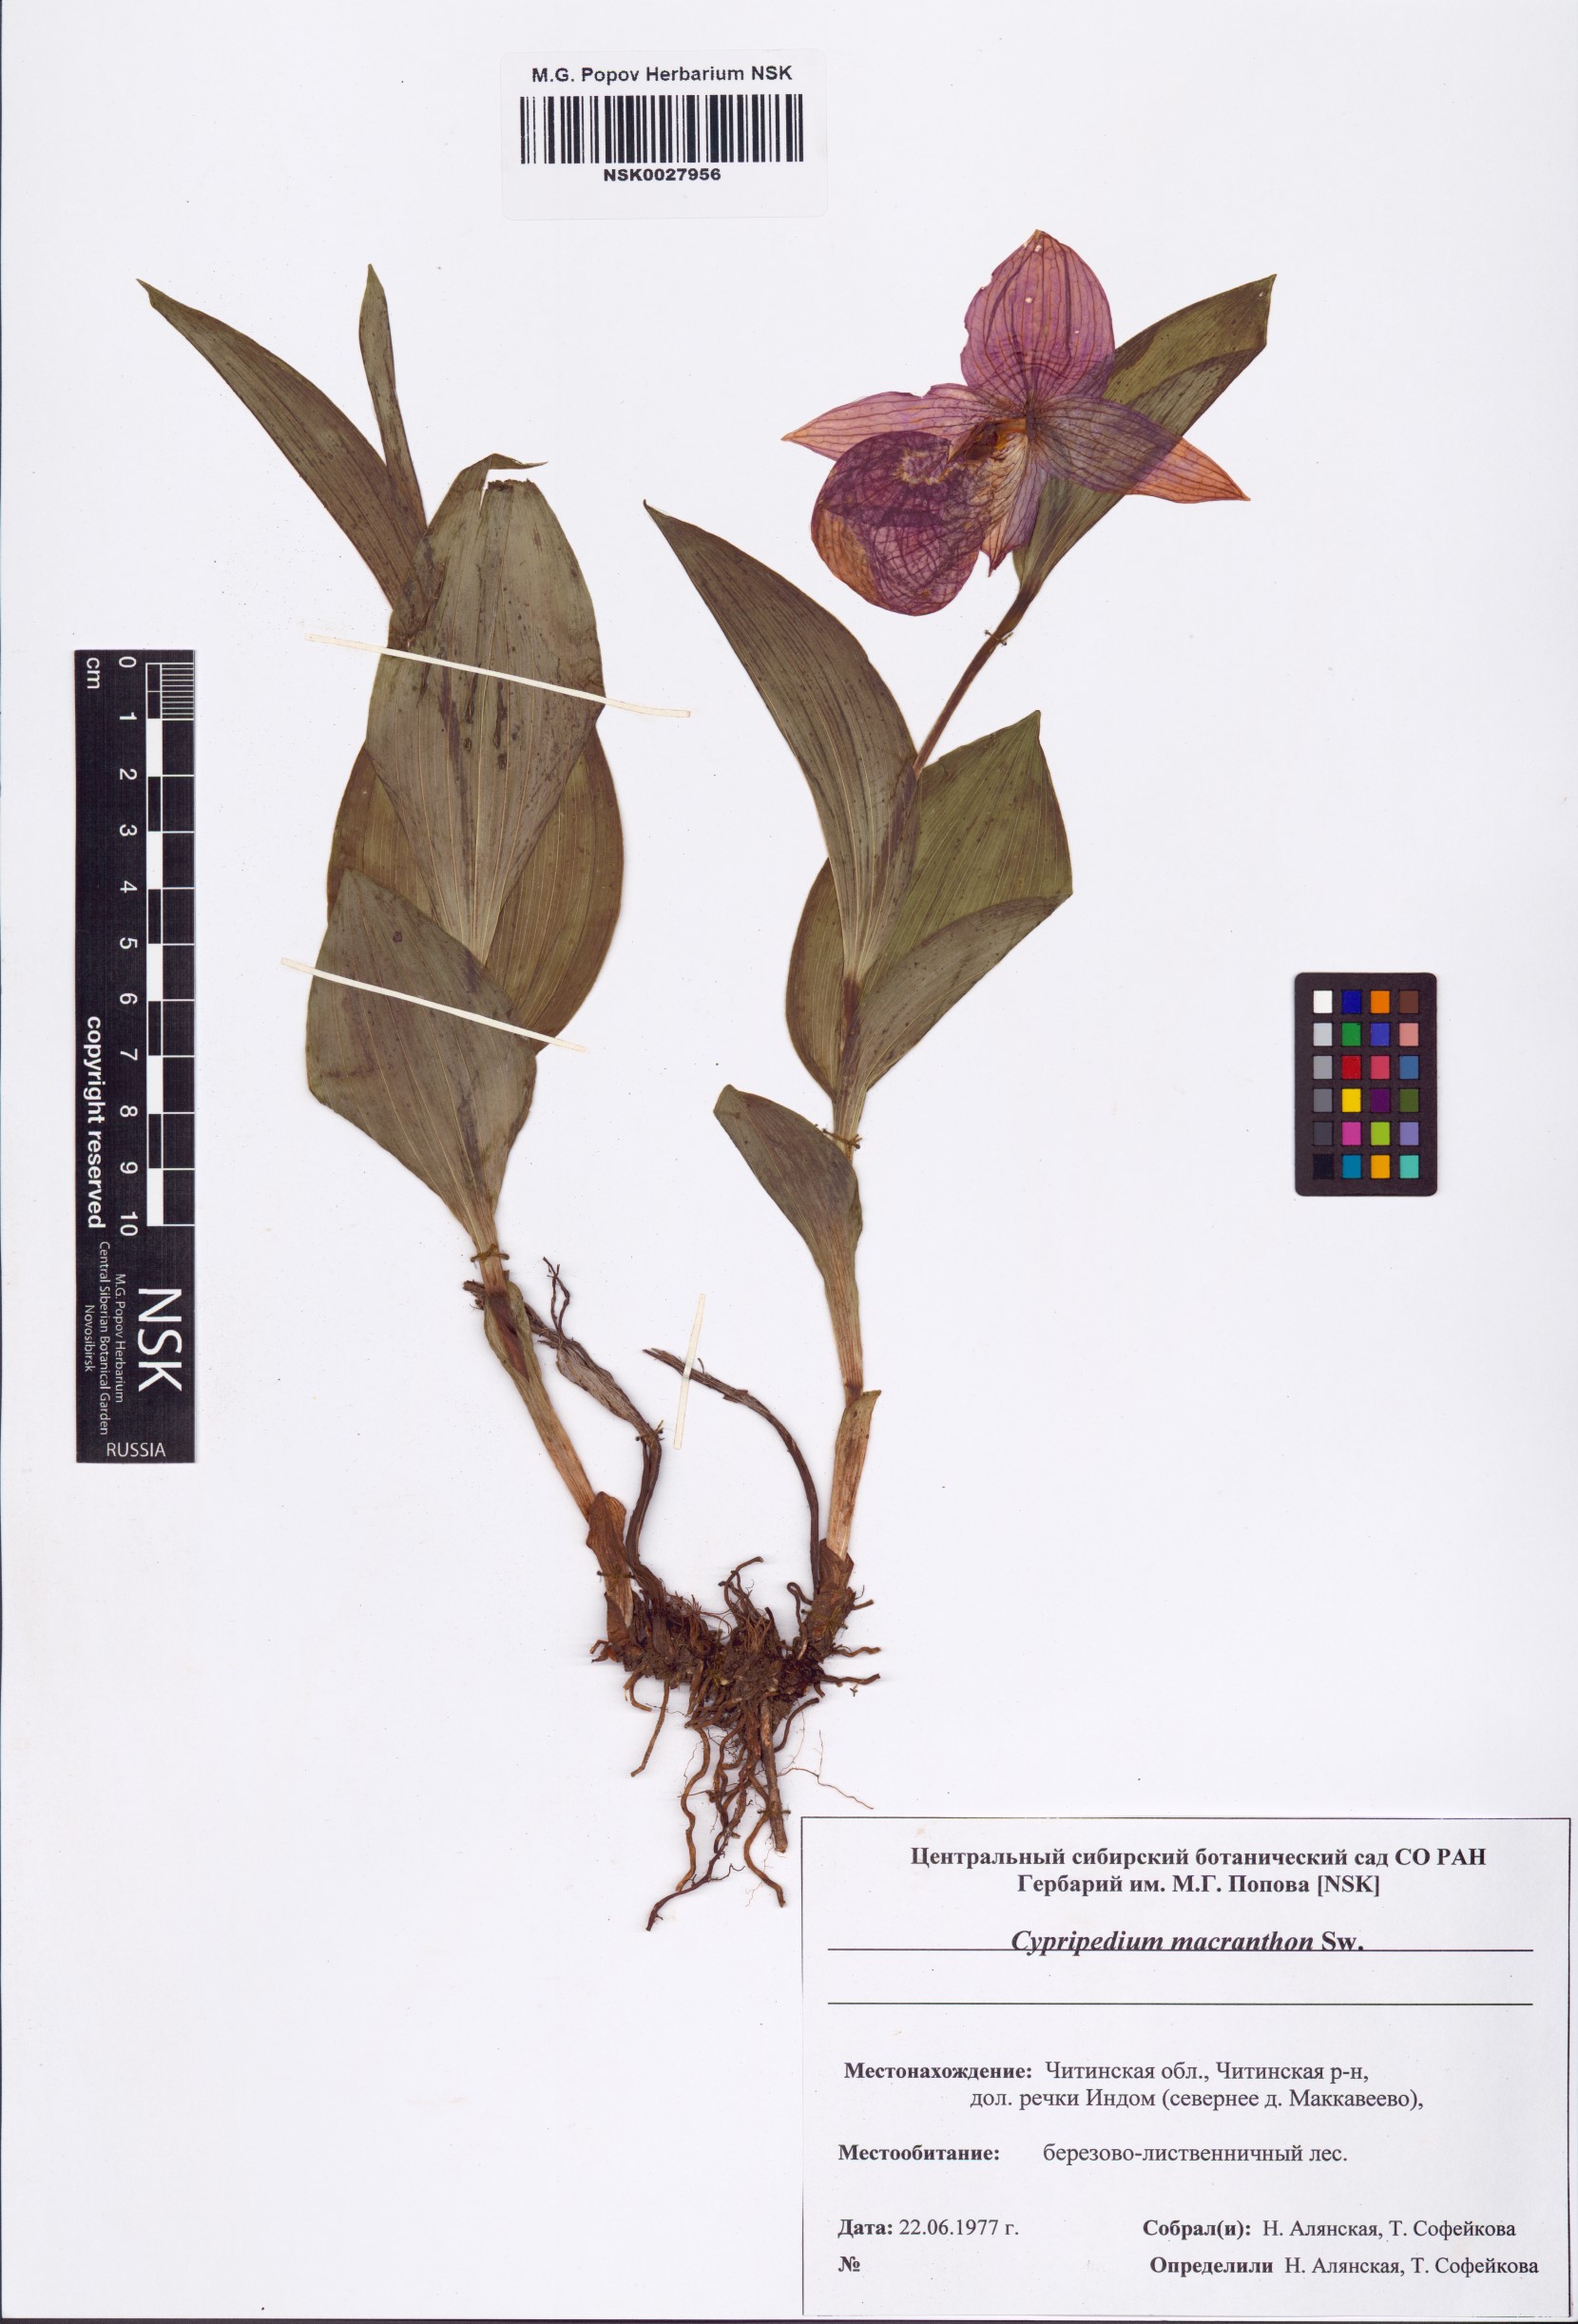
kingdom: Plantae
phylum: Tracheophyta
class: Liliopsida
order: Asparagales
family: Orchidaceae
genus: Cypripedium
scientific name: Cypripedium macranthos
